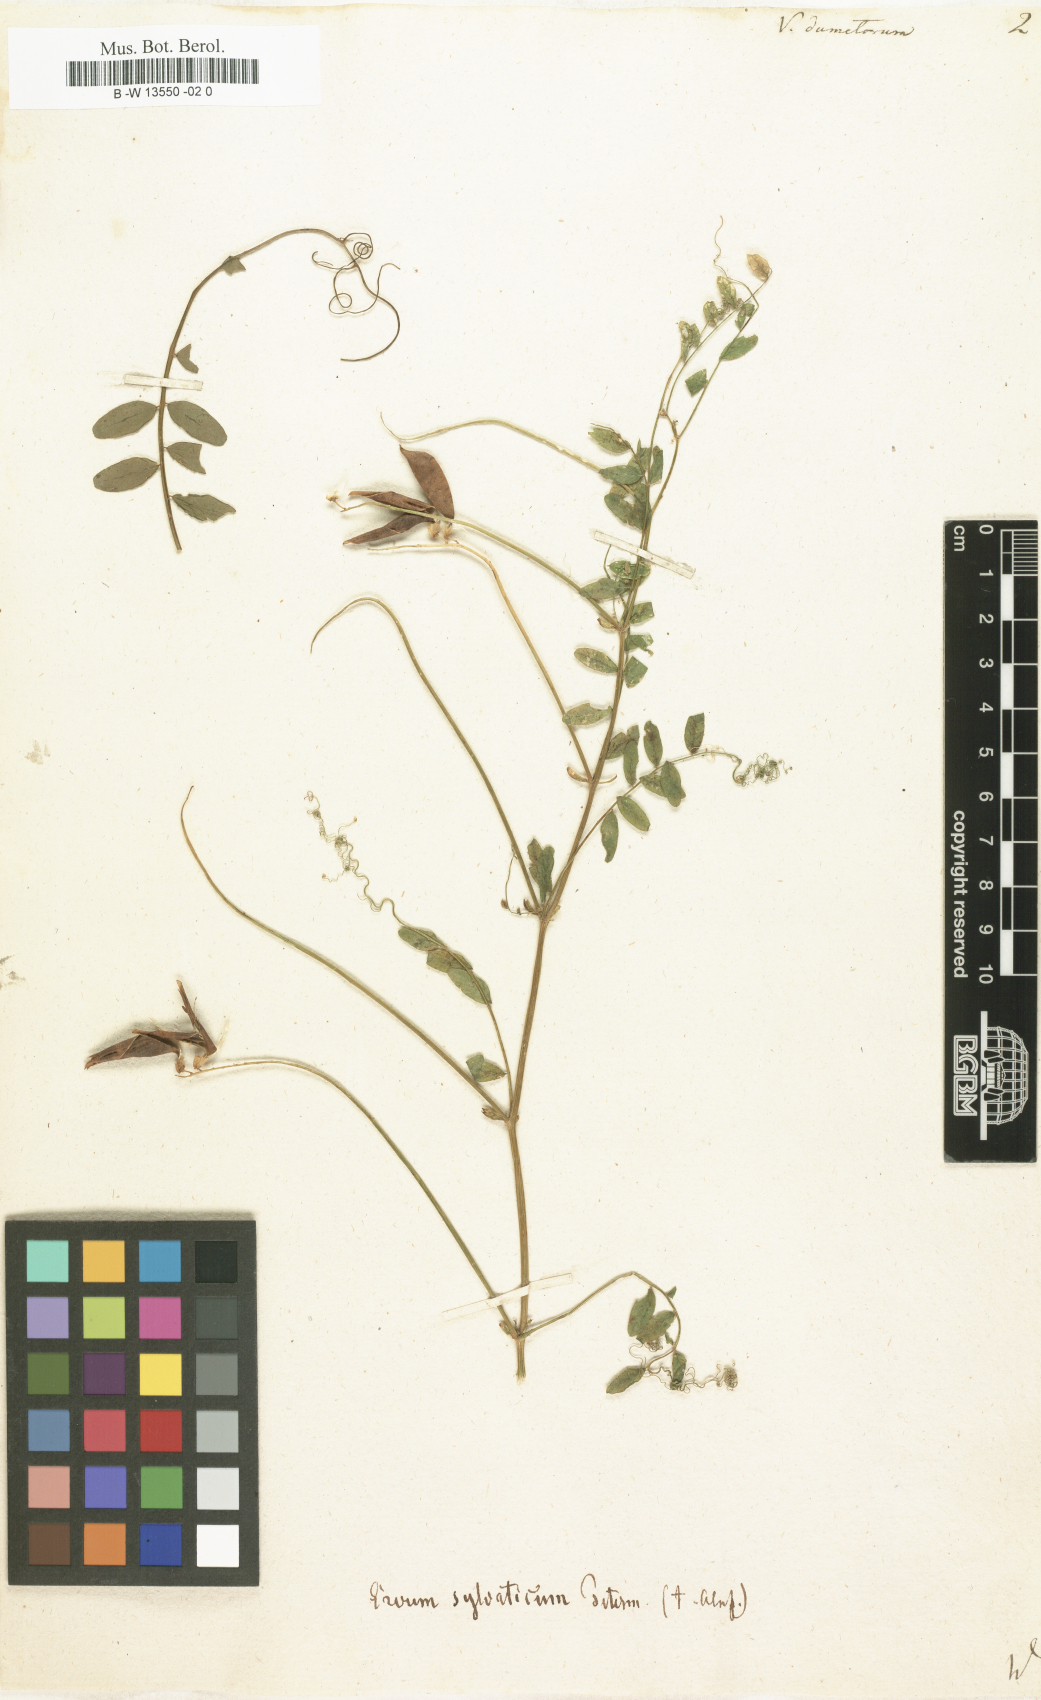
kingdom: Plantae
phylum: Tracheophyta
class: Magnoliopsida
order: Fabales
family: Fabaceae
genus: Vicia
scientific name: Vicia dumetorum
